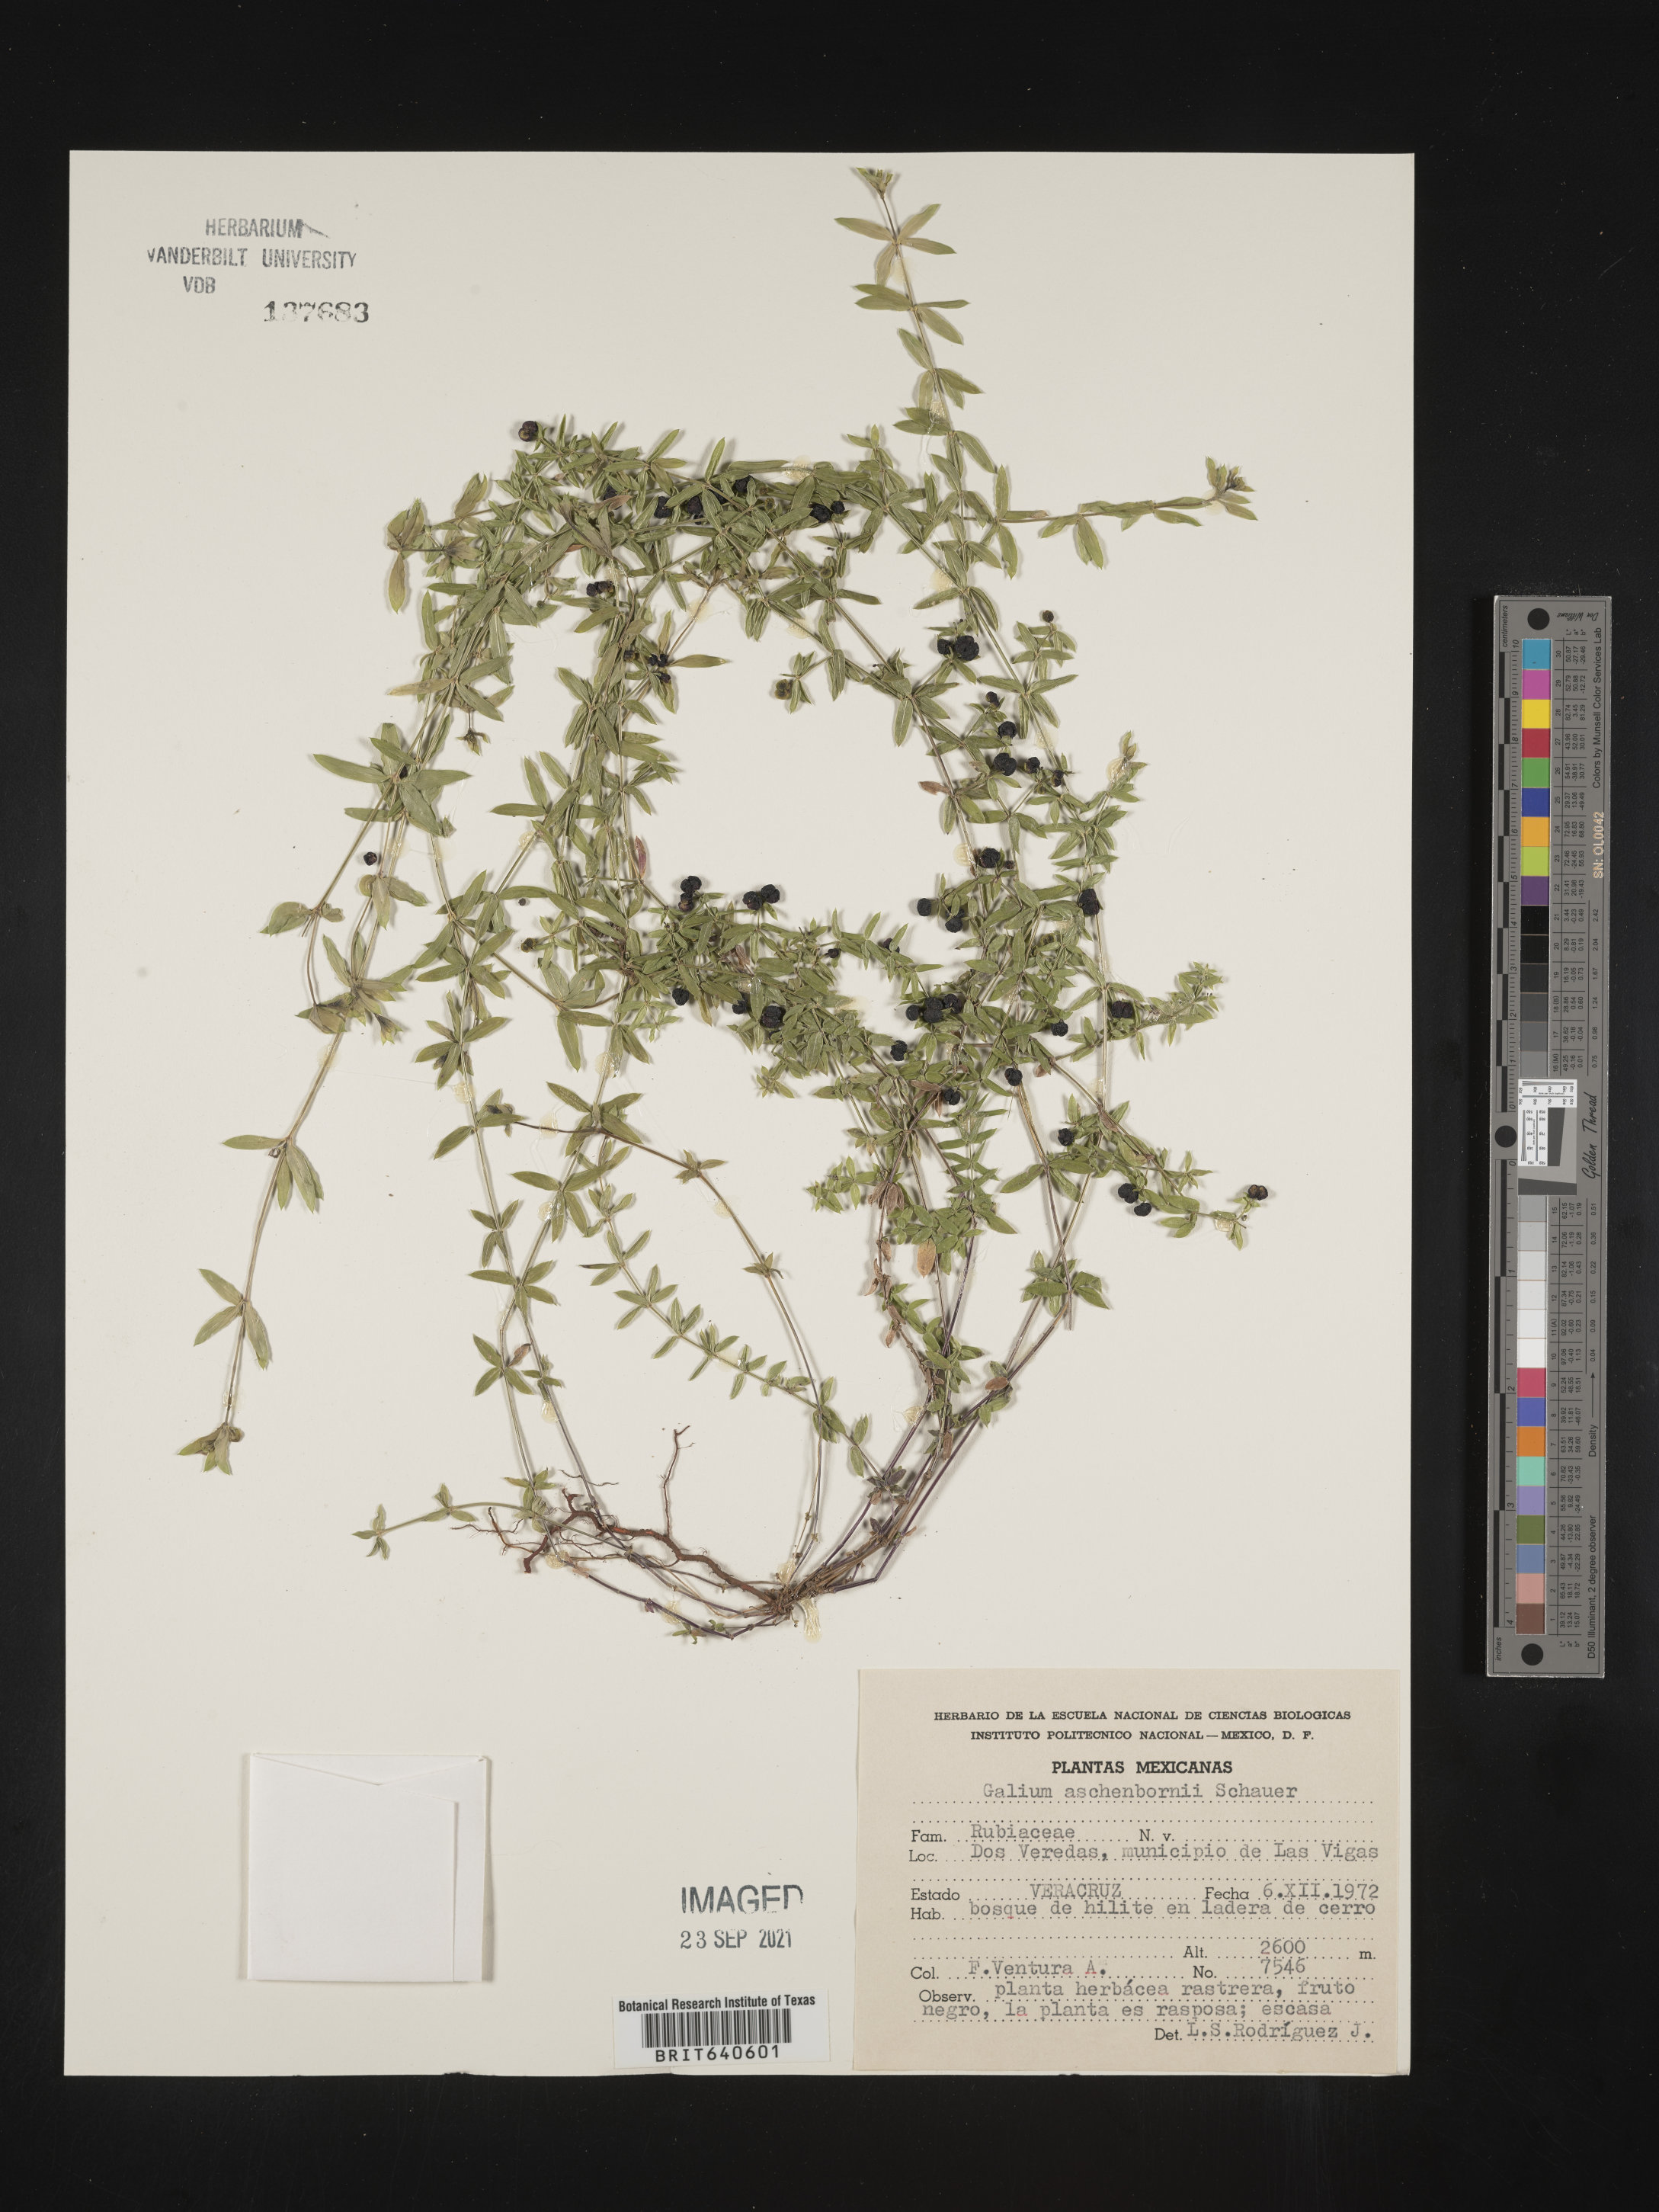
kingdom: Plantae
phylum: Tracheophyta
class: Magnoliopsida
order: Gentianales
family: Rubiaceae
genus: Galium
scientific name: Galium
